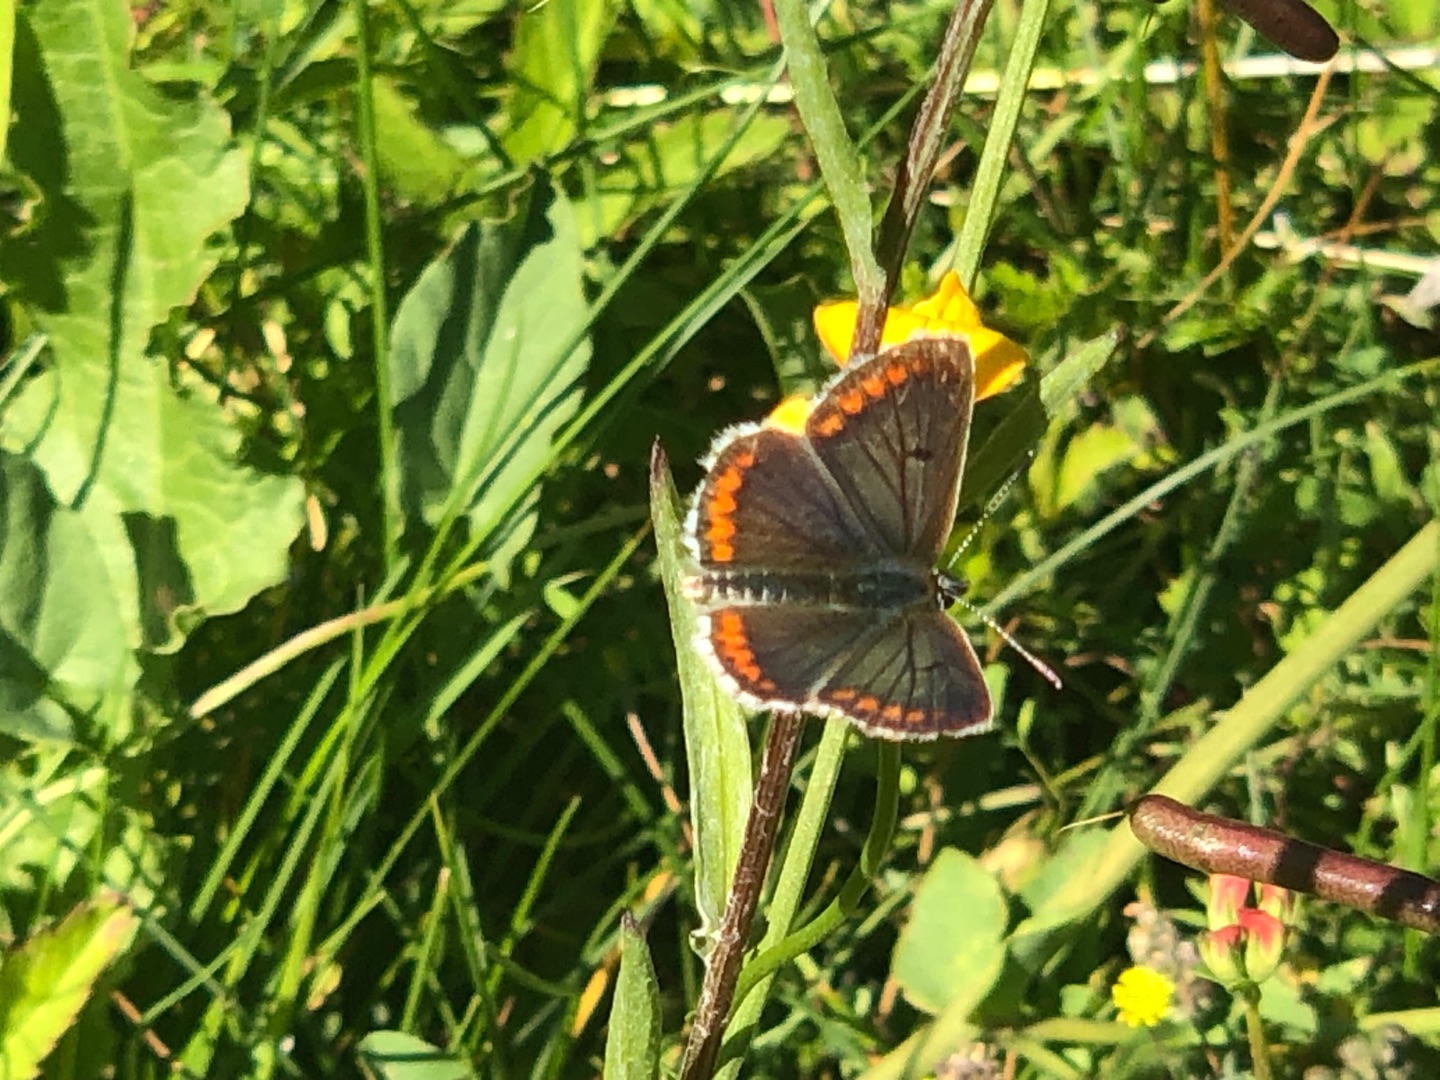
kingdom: Animalia
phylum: Arthropoda
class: Insecta
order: Lepidoptera
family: Lycaenidae
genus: Aricia
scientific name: Aricia agestis
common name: Rødplettet blåfugl
